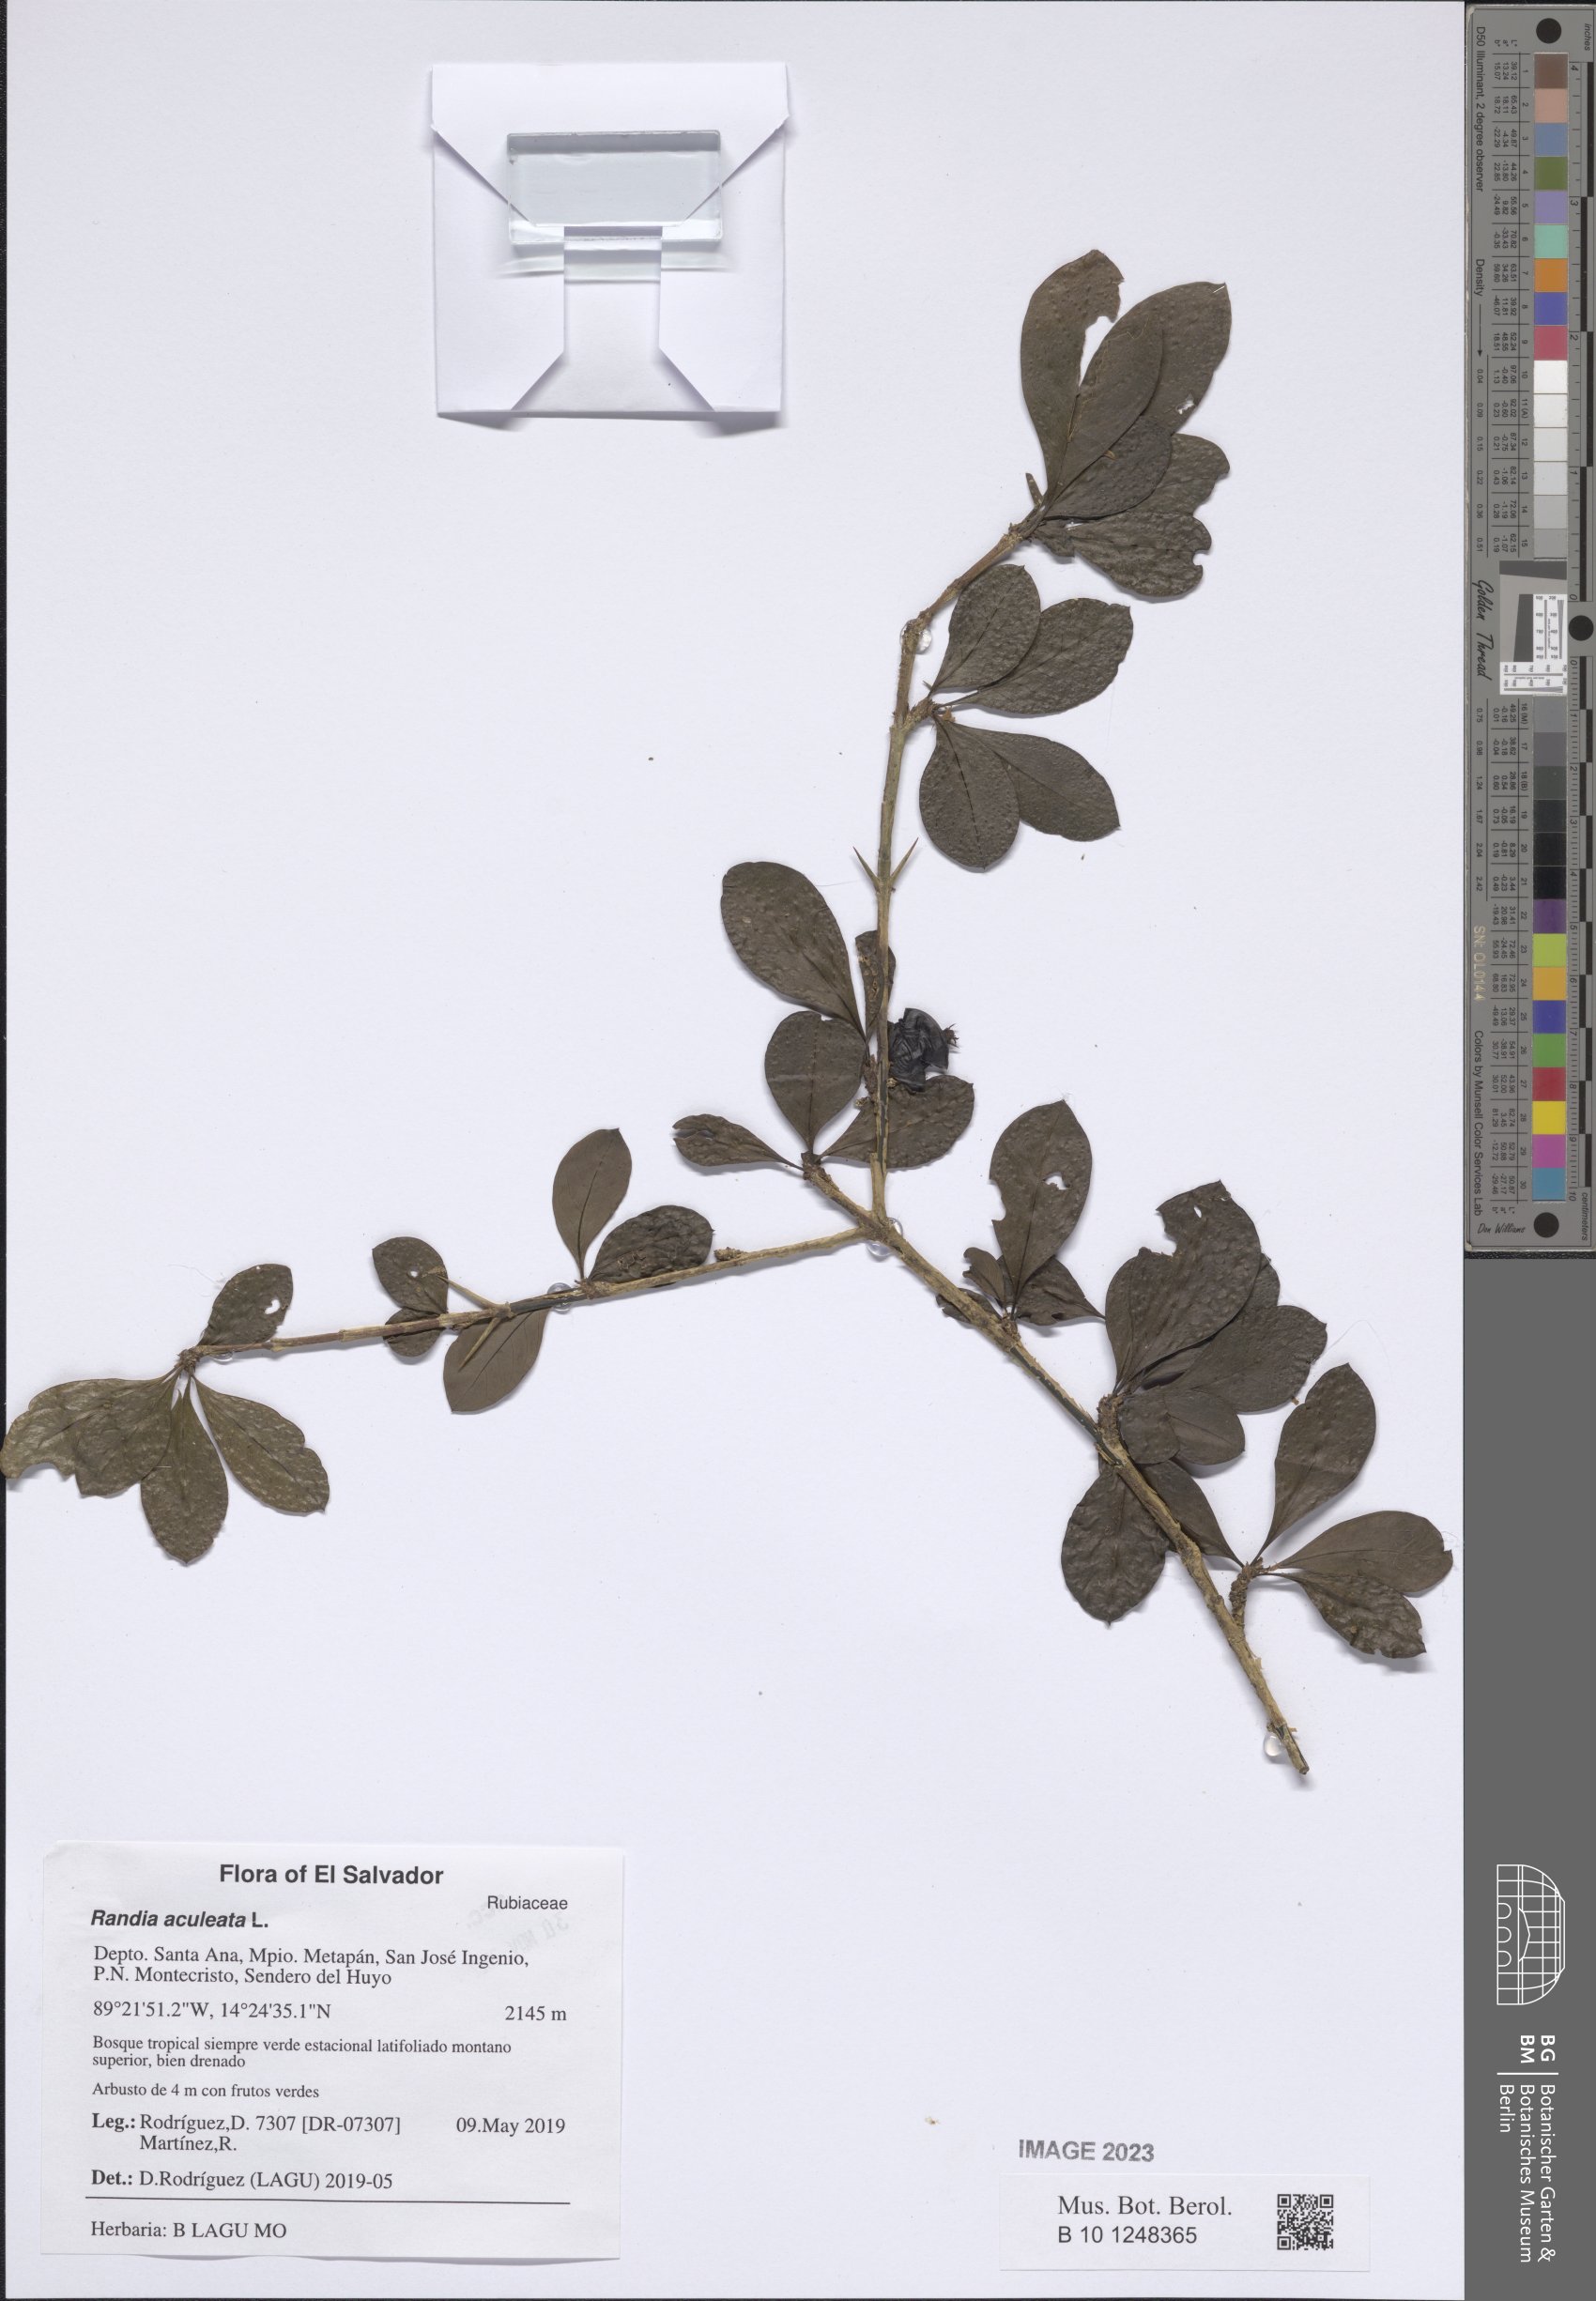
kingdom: Plantae
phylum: Tracheophyta
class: Magnoliopsida
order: Gentianales
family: Rubiaceae
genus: Randia
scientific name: Randia aculeata
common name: Inkberry
